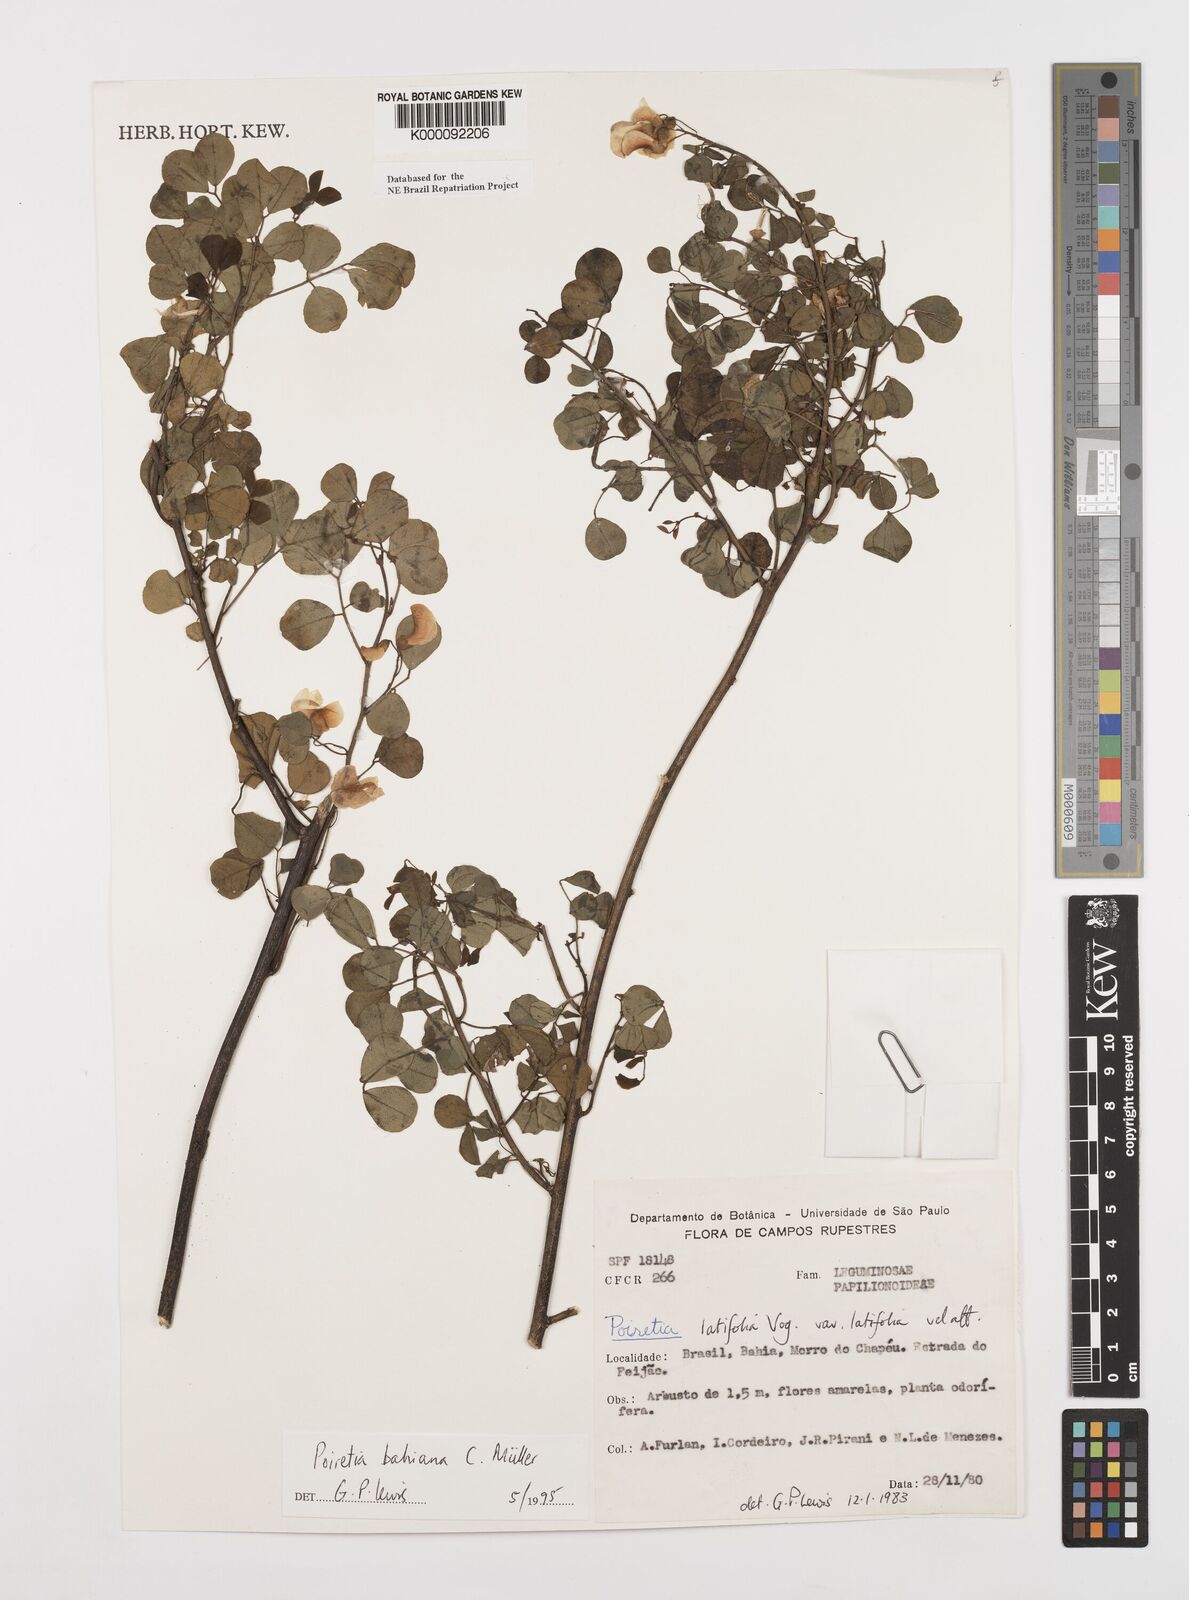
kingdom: Plantae
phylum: Tracheophyta
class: Magnoliopsida
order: Fabales
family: Fabaceae
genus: Poiretia
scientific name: Poiretia
